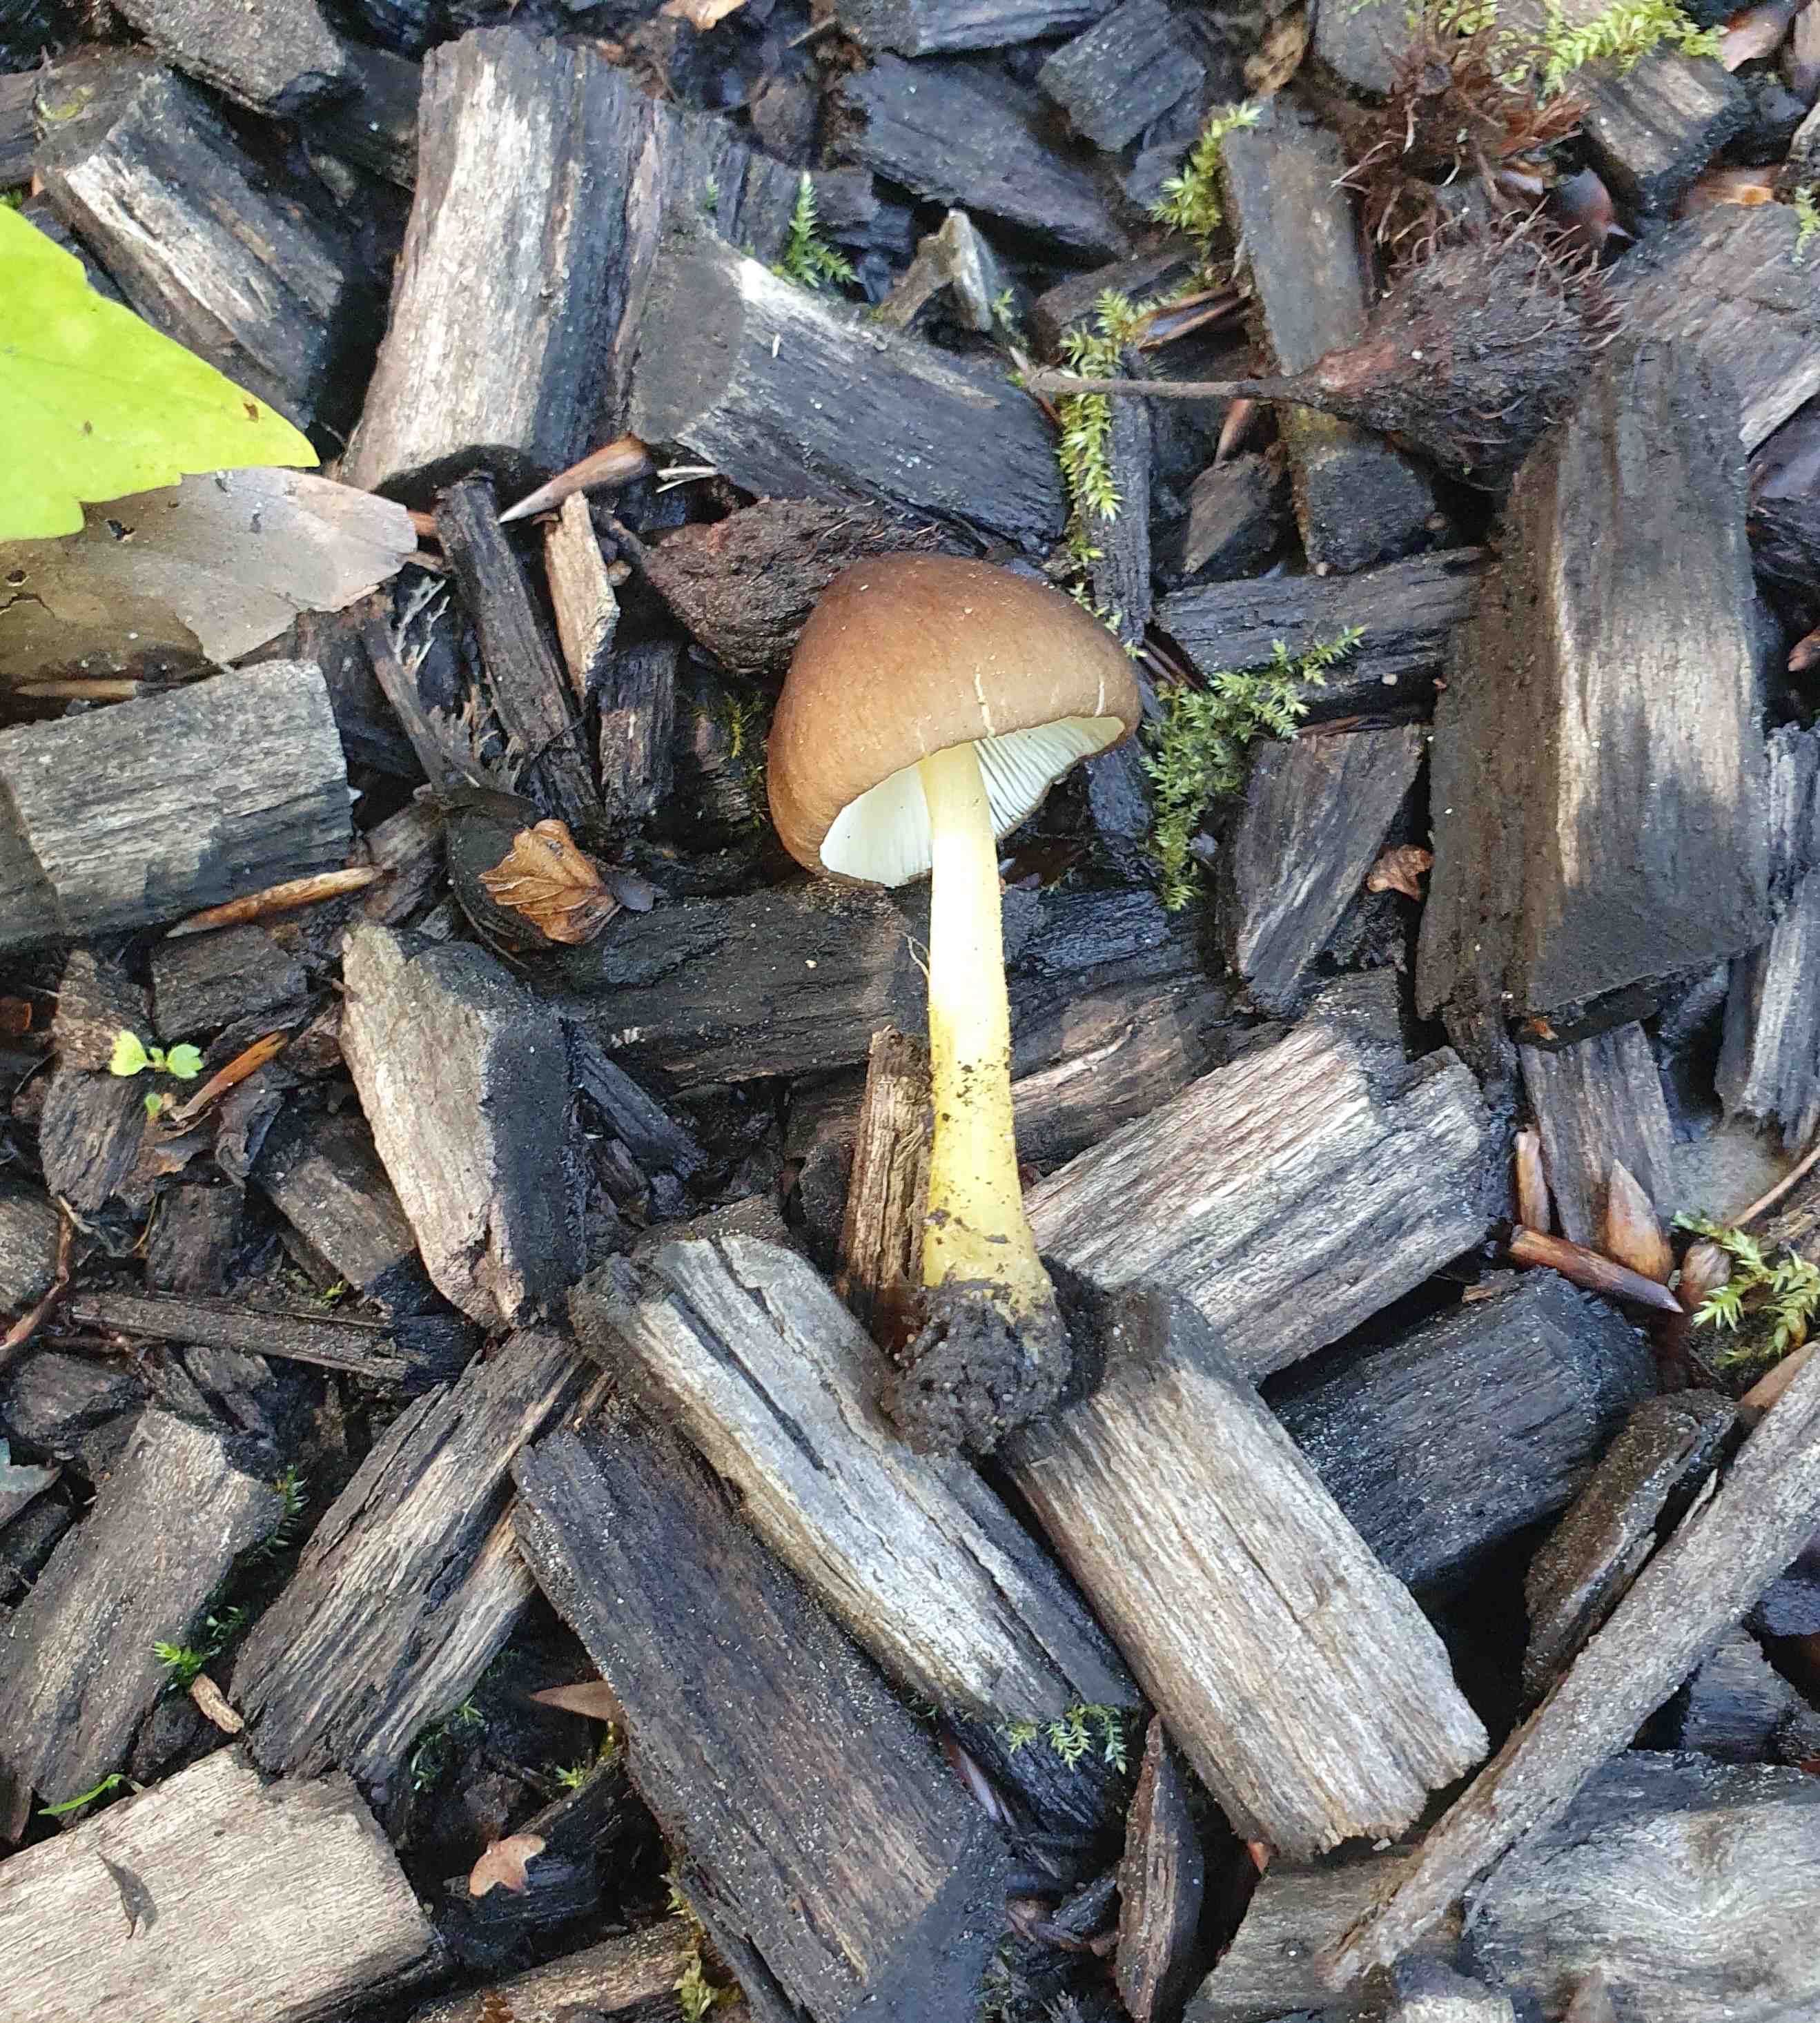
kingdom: Fungi
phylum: Basidiomycota
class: Agaricomycetes
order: Agaricales
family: Pluteaceae
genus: Pluteus
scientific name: Pluteus romellii
